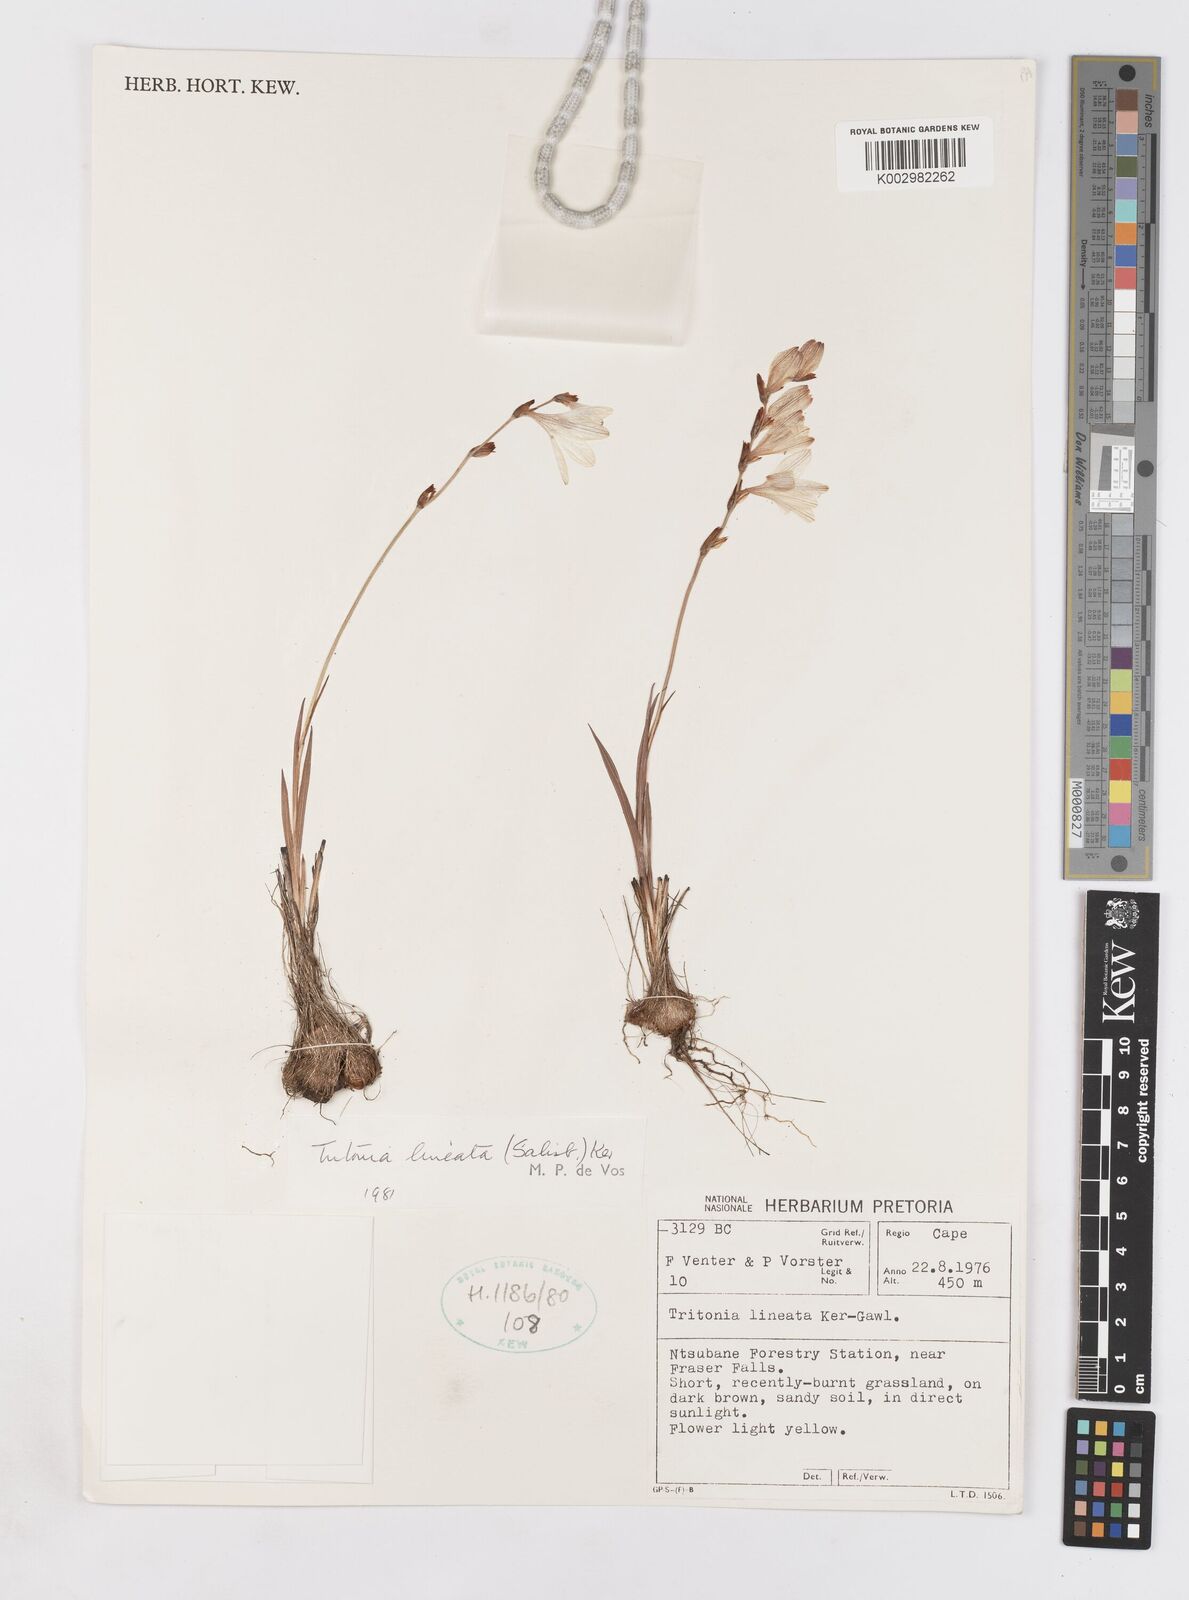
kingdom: Plantae
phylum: Tracheophyta
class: Liliopsida
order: Asparagales
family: Iridaceae
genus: Tritonia
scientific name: Tritonia gladiolaris
